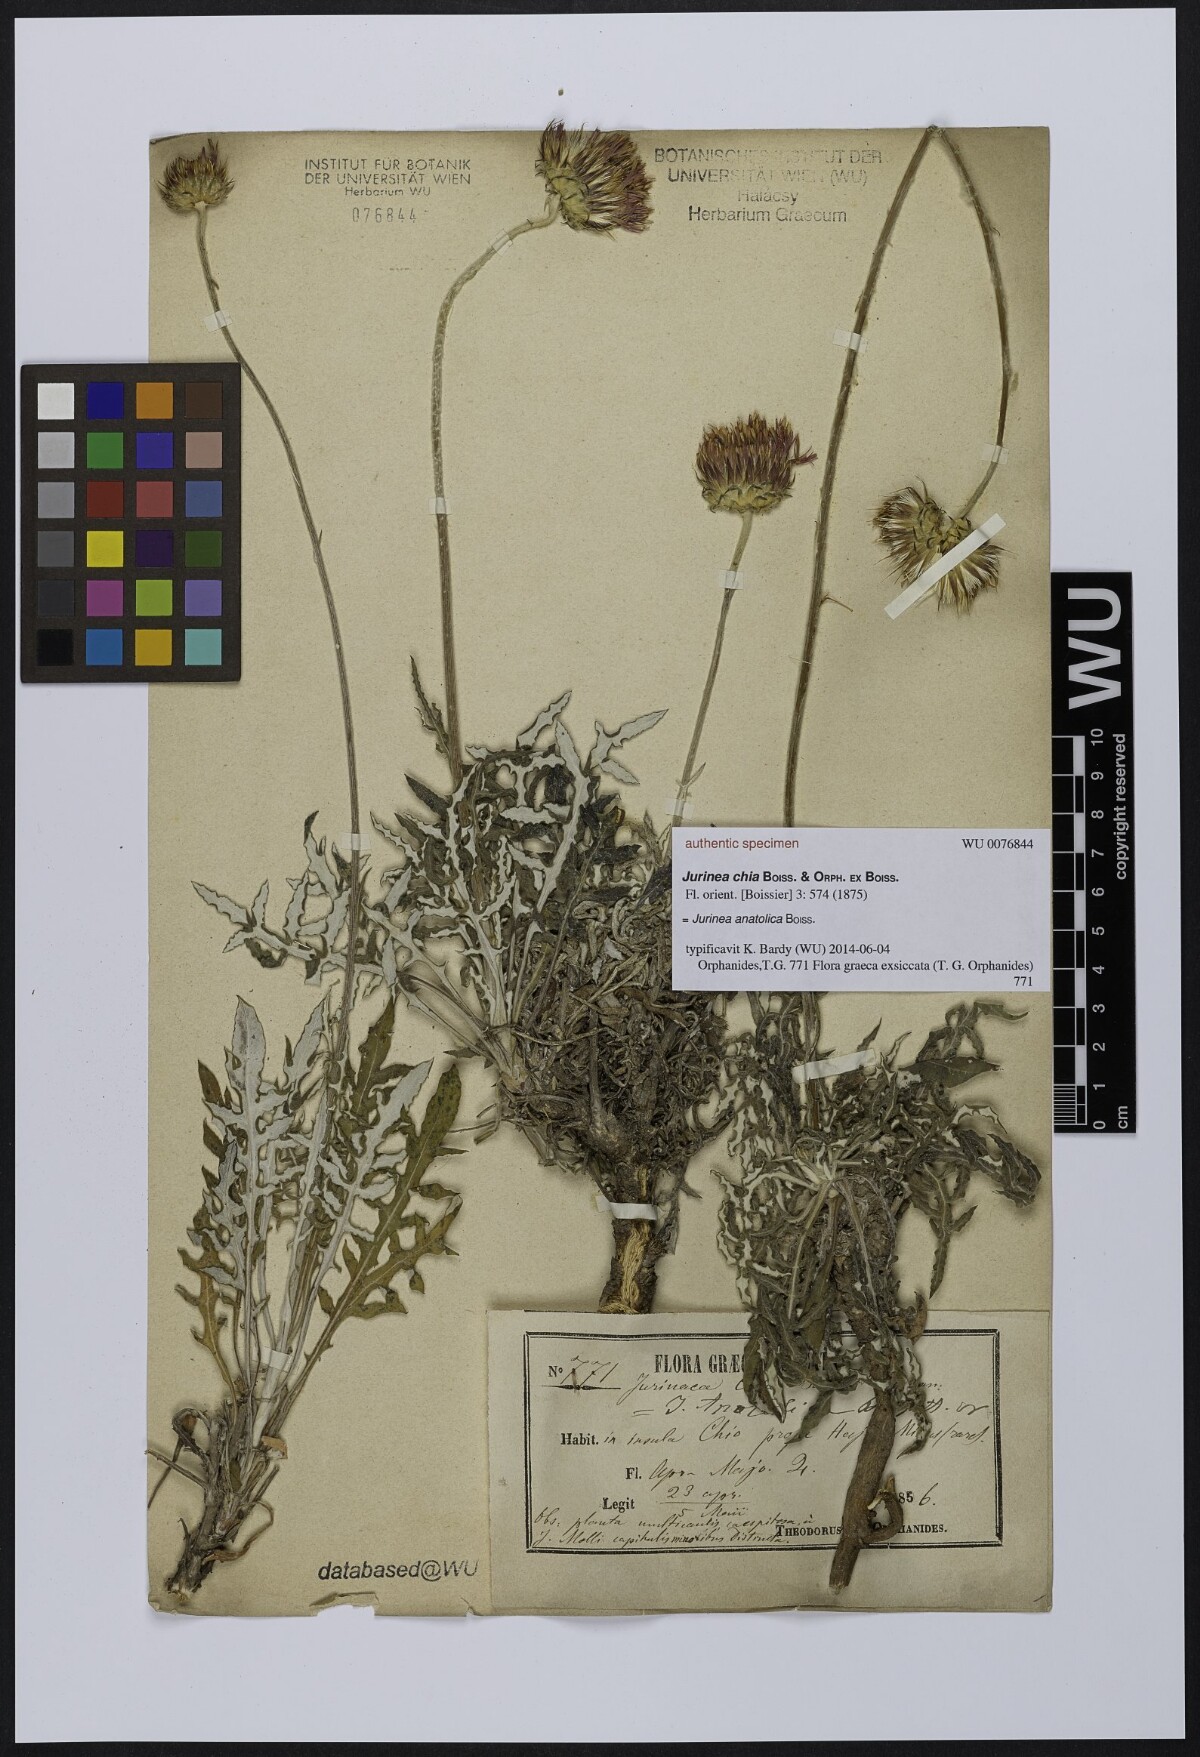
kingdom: Plantae
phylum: Tracheophyta
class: Magnoliopsida
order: Asterales
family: Asteraceae
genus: Jurinea
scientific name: Jurinea consanguinea
